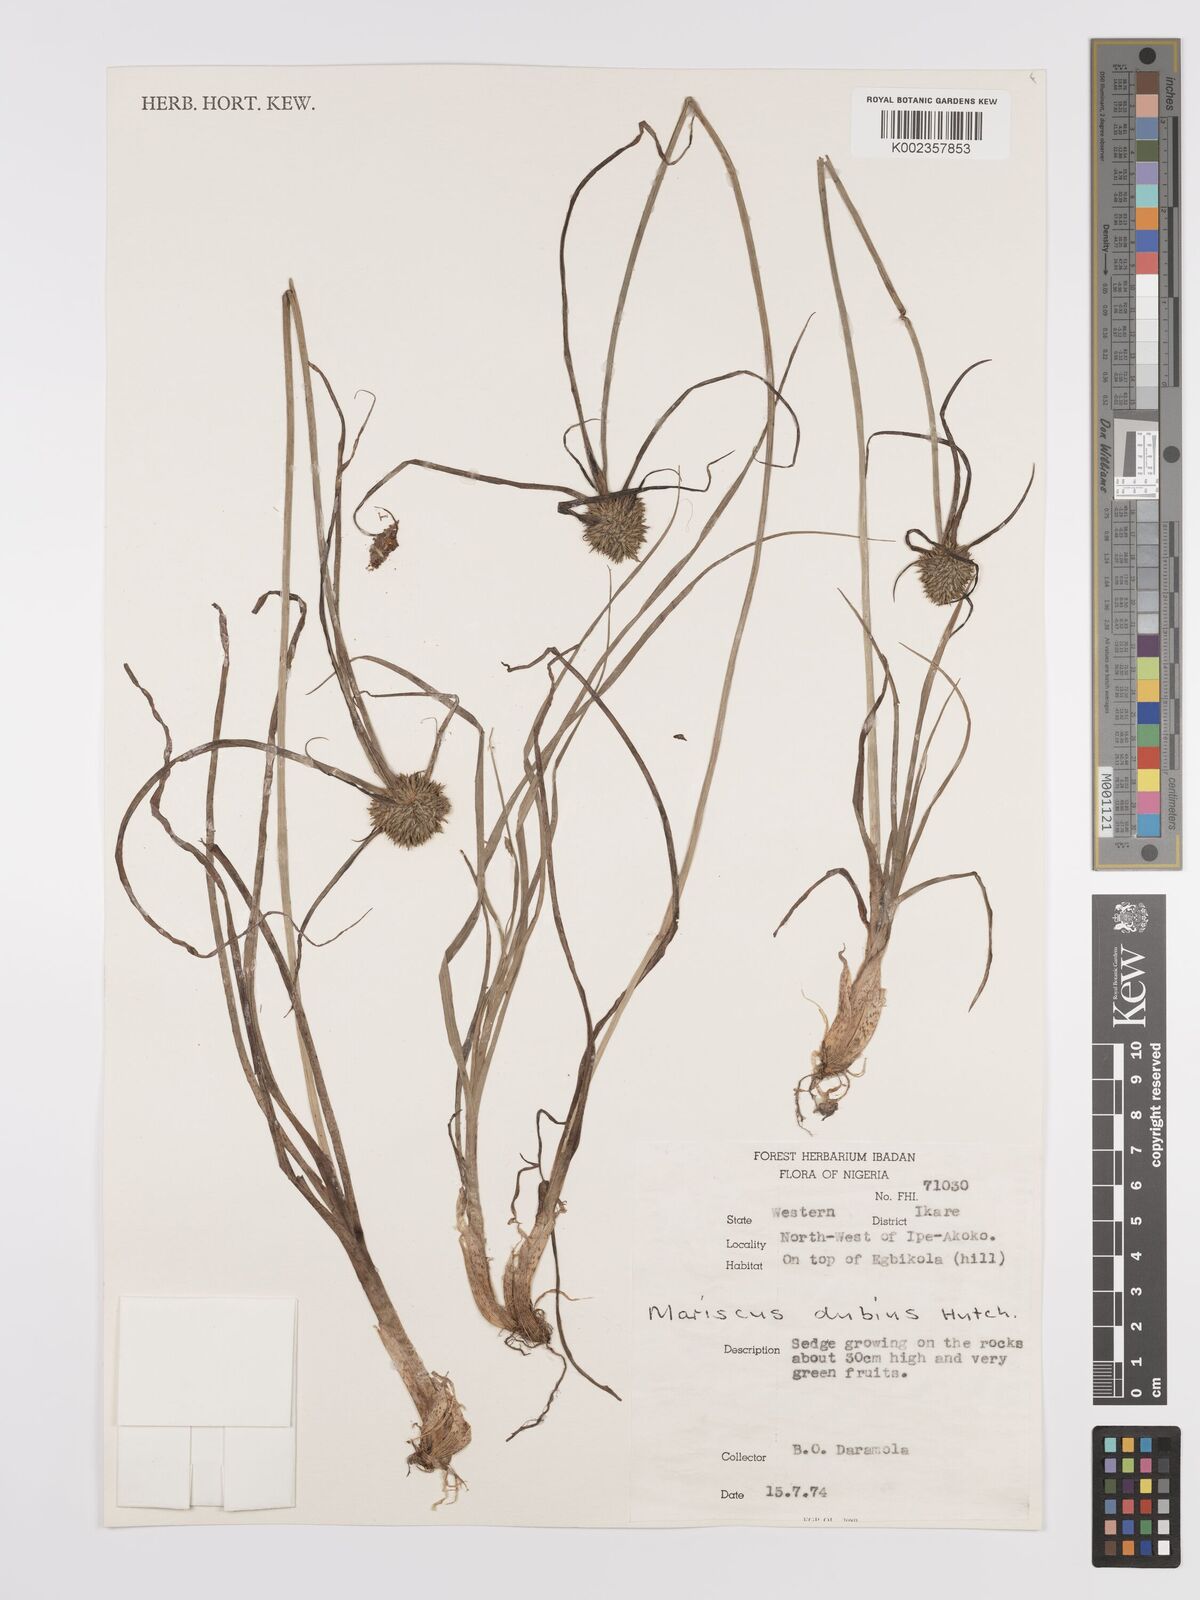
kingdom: Plantae
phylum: Tracheophyta
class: Liliopsida
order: Poales
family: Cyperaceae
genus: Cyperus
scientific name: Cyperus dubius
